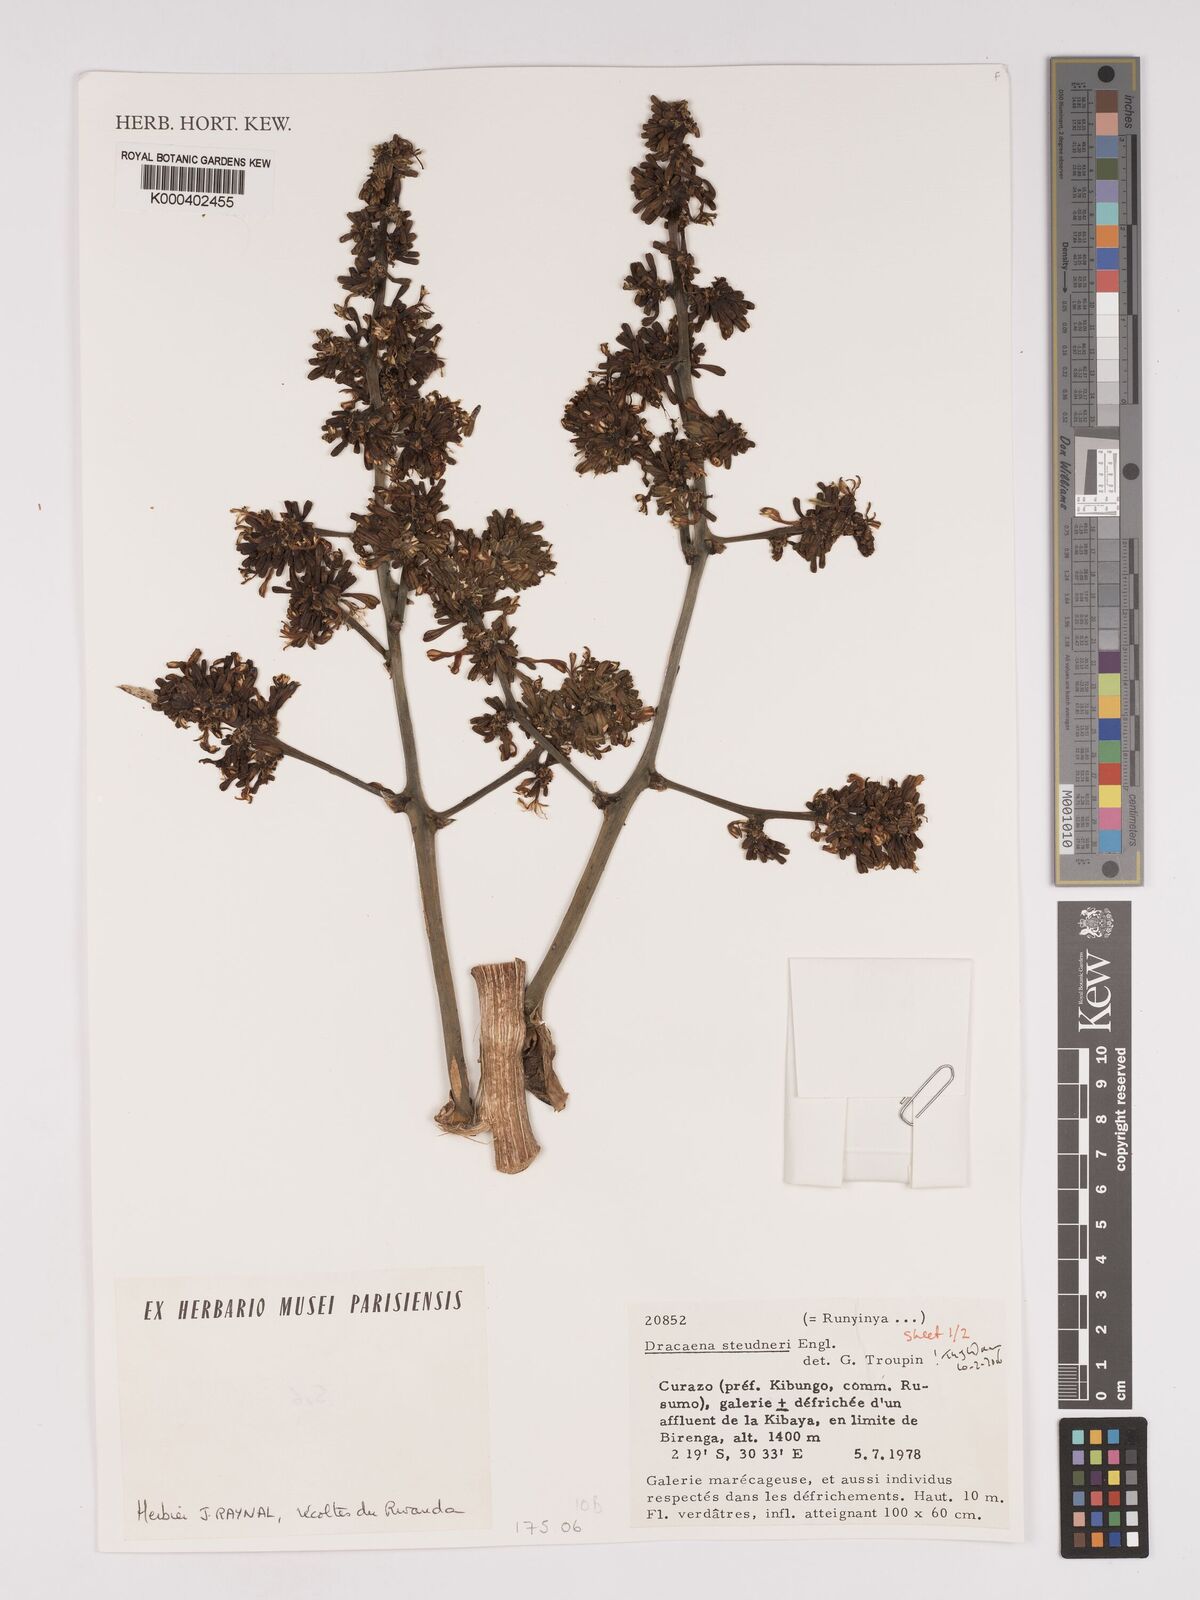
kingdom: Plantae
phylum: Tracheophyta
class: Liliopsida
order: Asparagales
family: Asparagaceae
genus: Dracaena
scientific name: Dracaena steudneri
